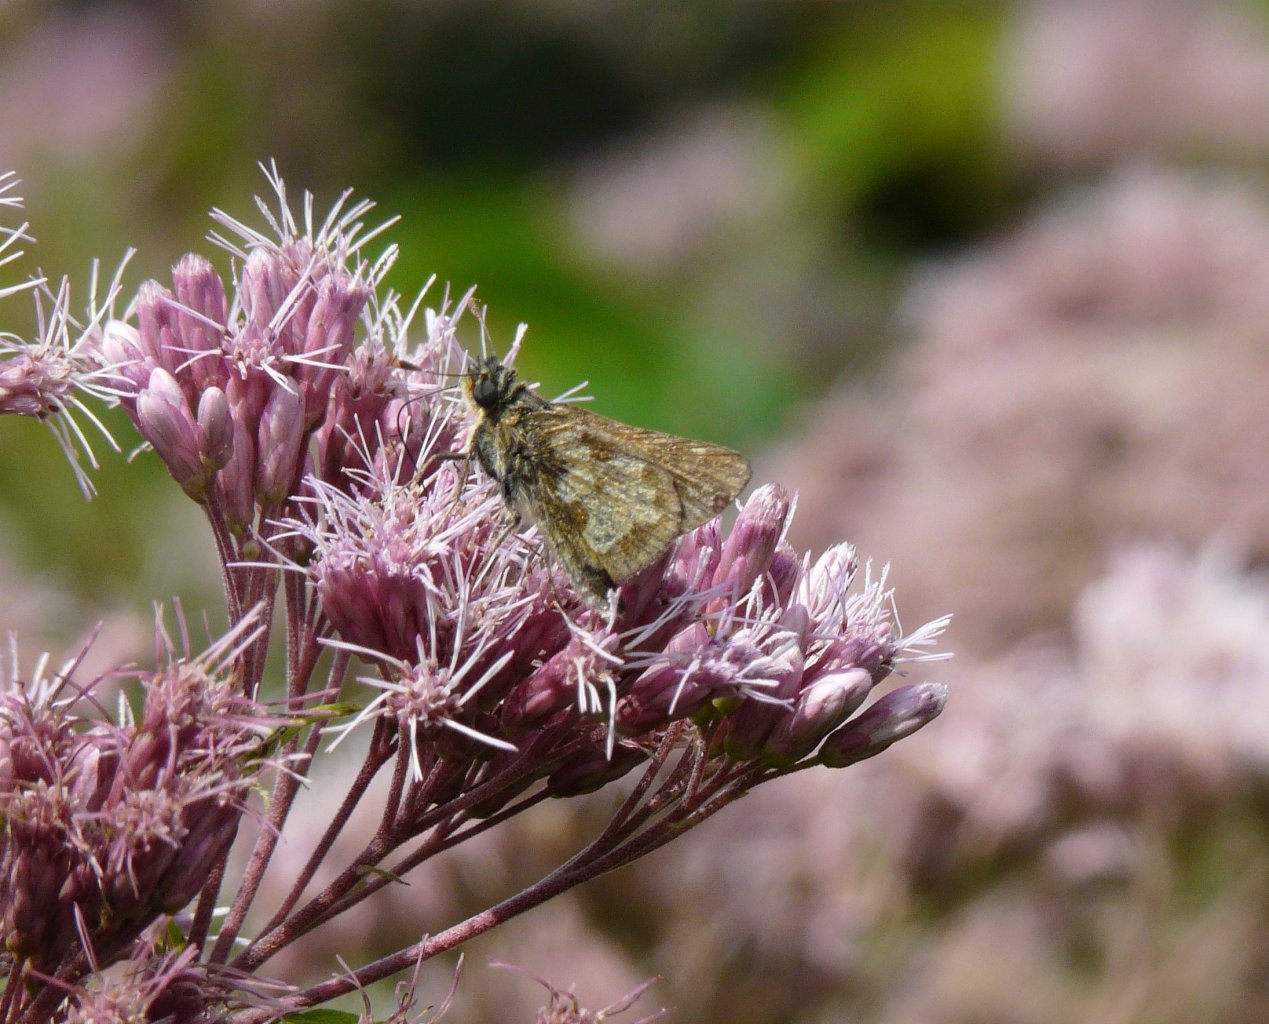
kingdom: Animalia
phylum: Arthropoda
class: Insecta
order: Lepidoptera
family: Hesperiidae
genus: Polites
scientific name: Polites coras
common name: Peck's Skipper
